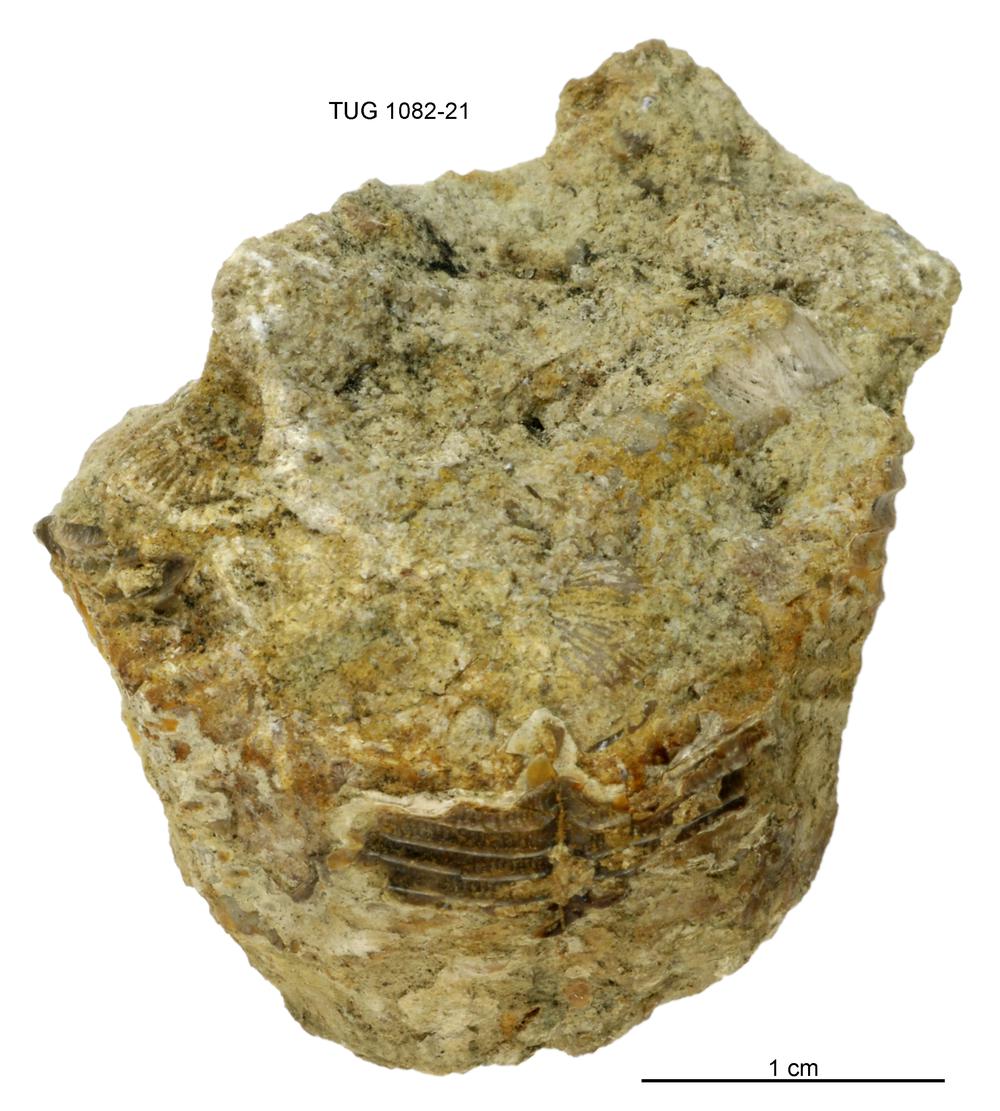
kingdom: Animalia
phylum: Cnidaria
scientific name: Cnidaria
